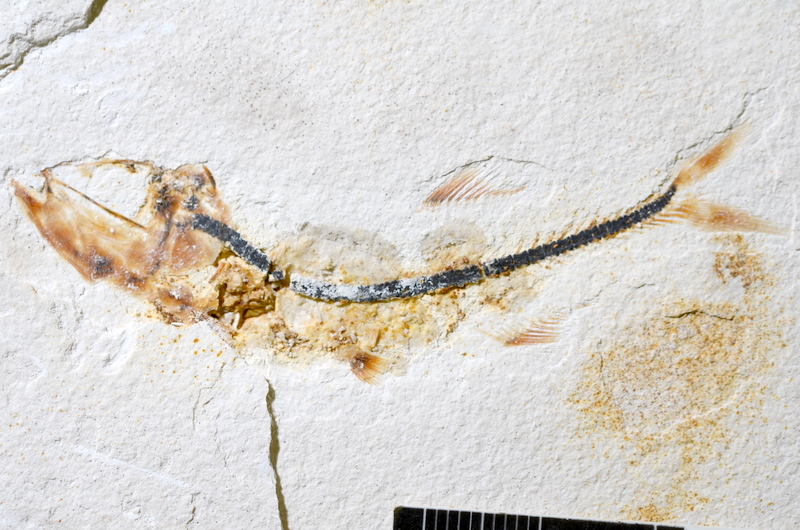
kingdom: Animalia
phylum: Chordata
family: Ascalaboidae
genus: Ebertichthys
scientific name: Ebertichthys ettlingensis
